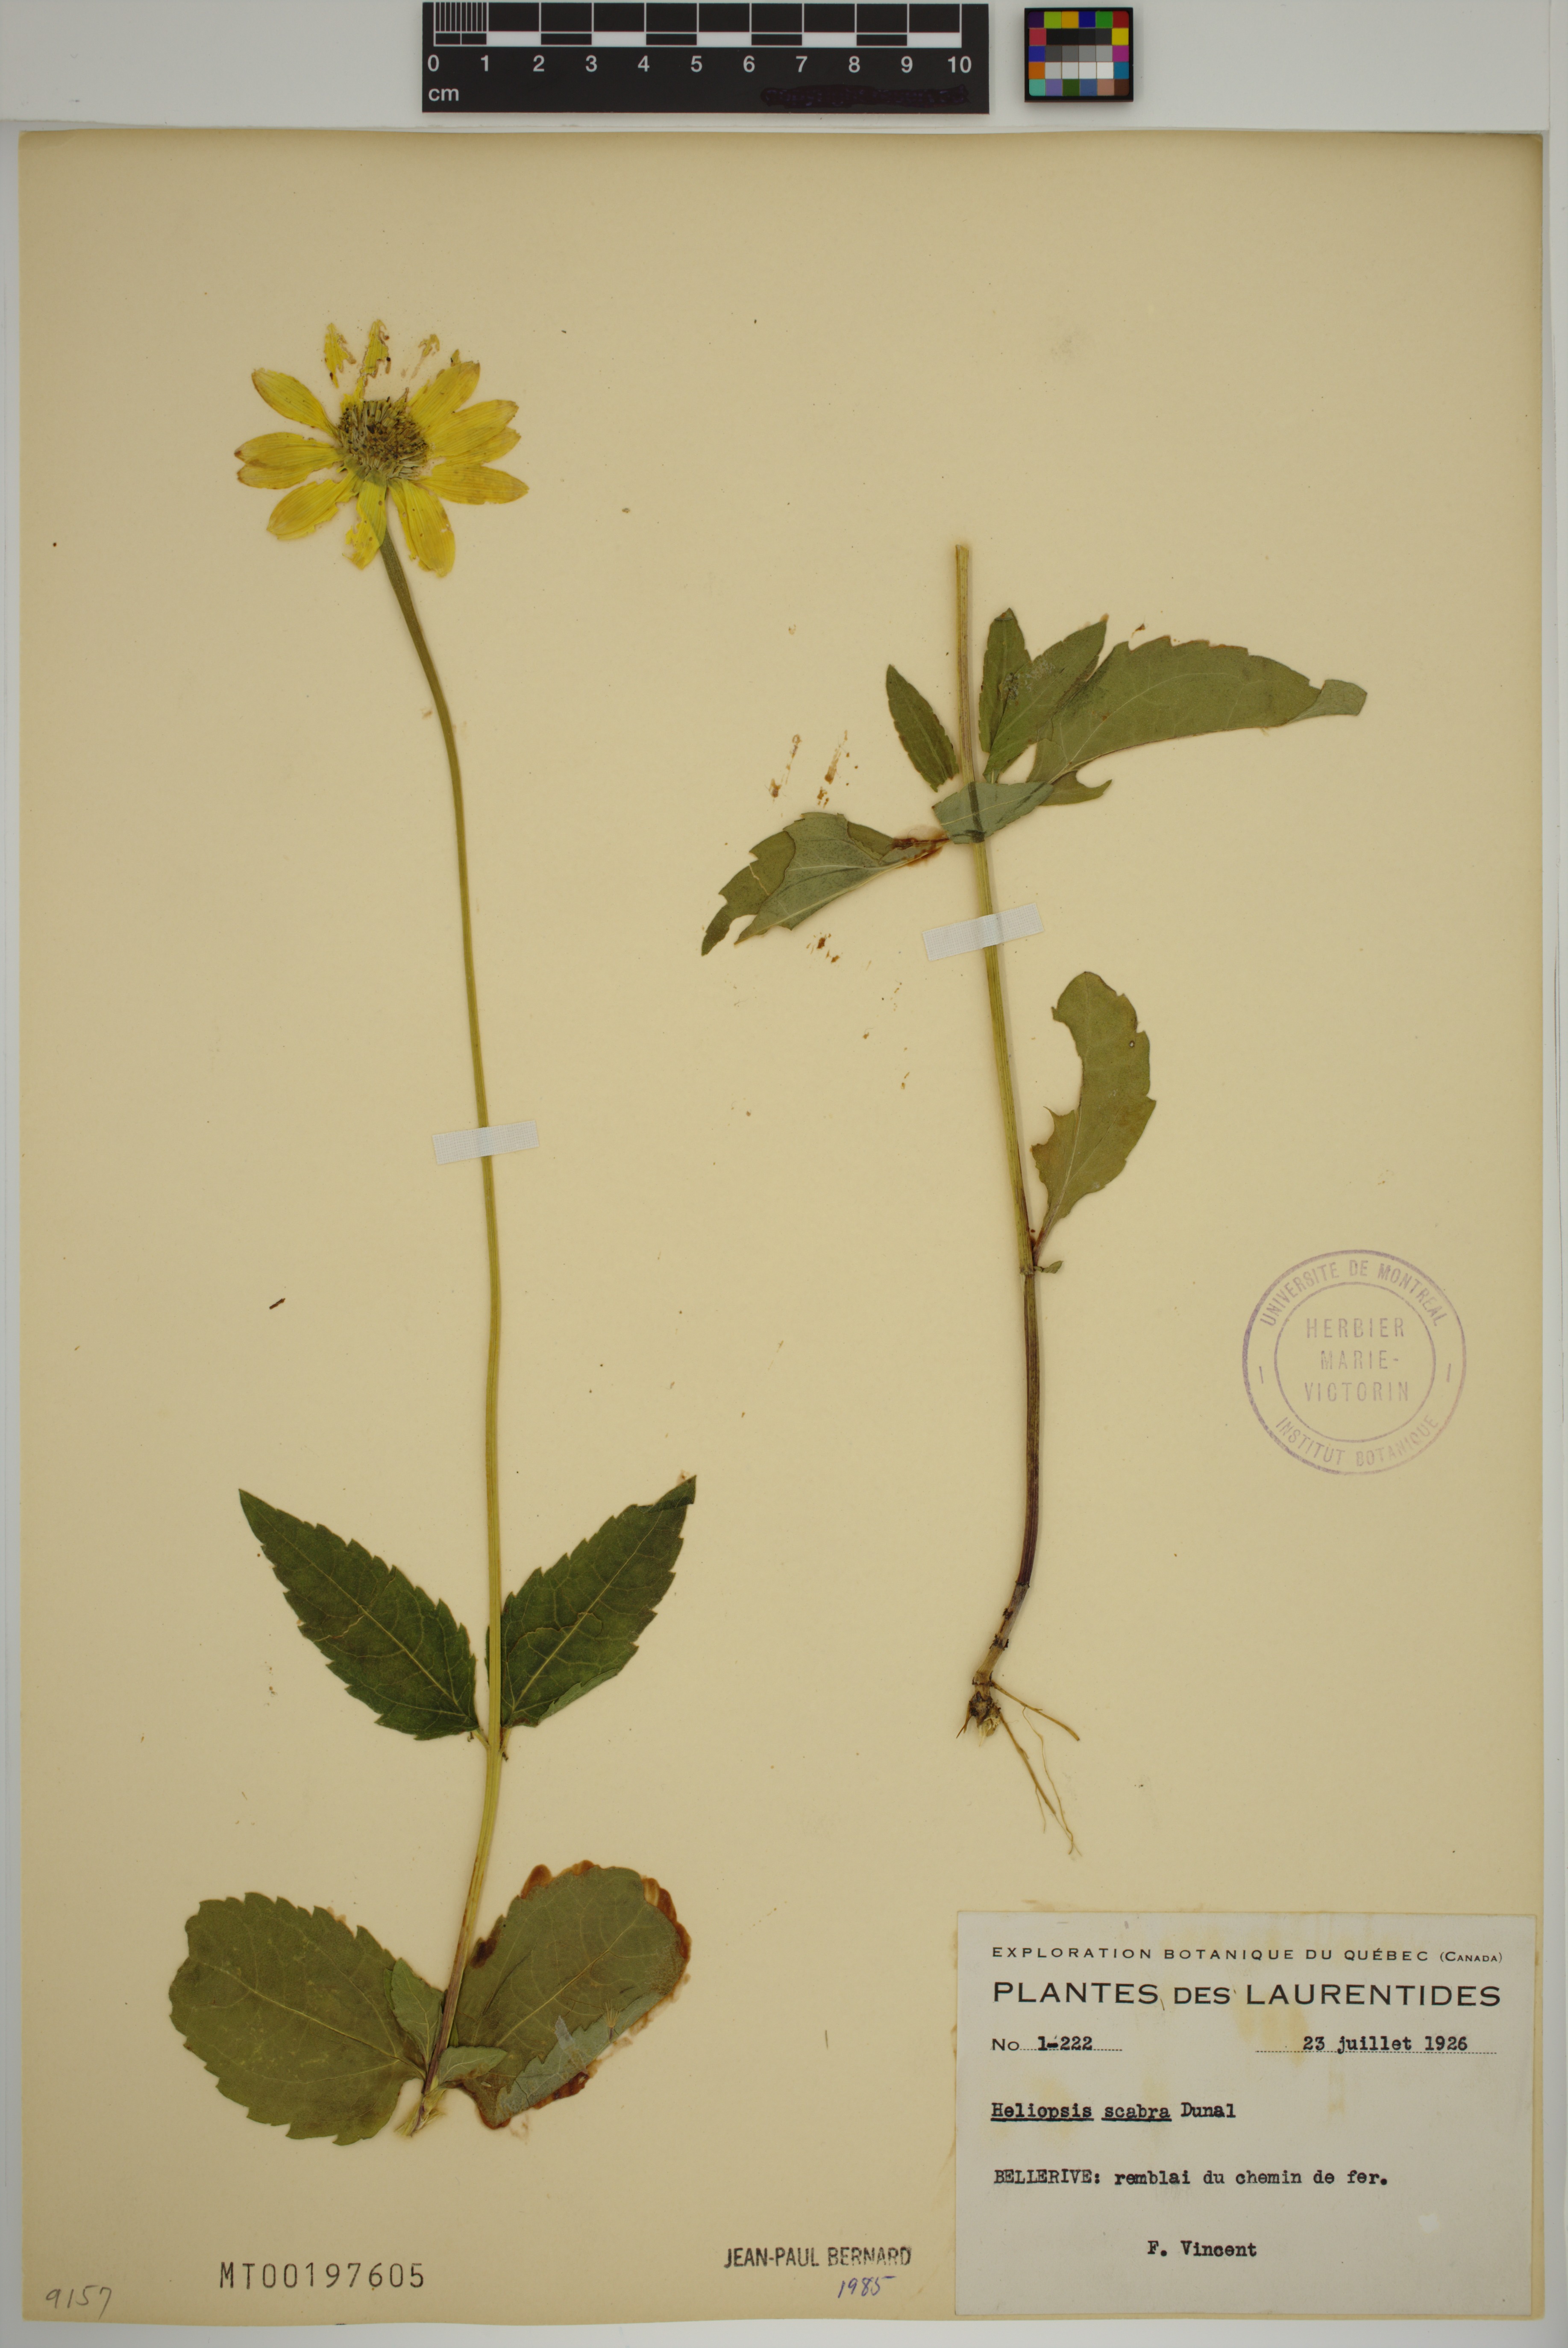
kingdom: Plantae
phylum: Tracheophyta
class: Magnoliopsida
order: Asterales
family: Asteraceae
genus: Heliopsis
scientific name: Heliopsis helianthoides
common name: False sunflower
